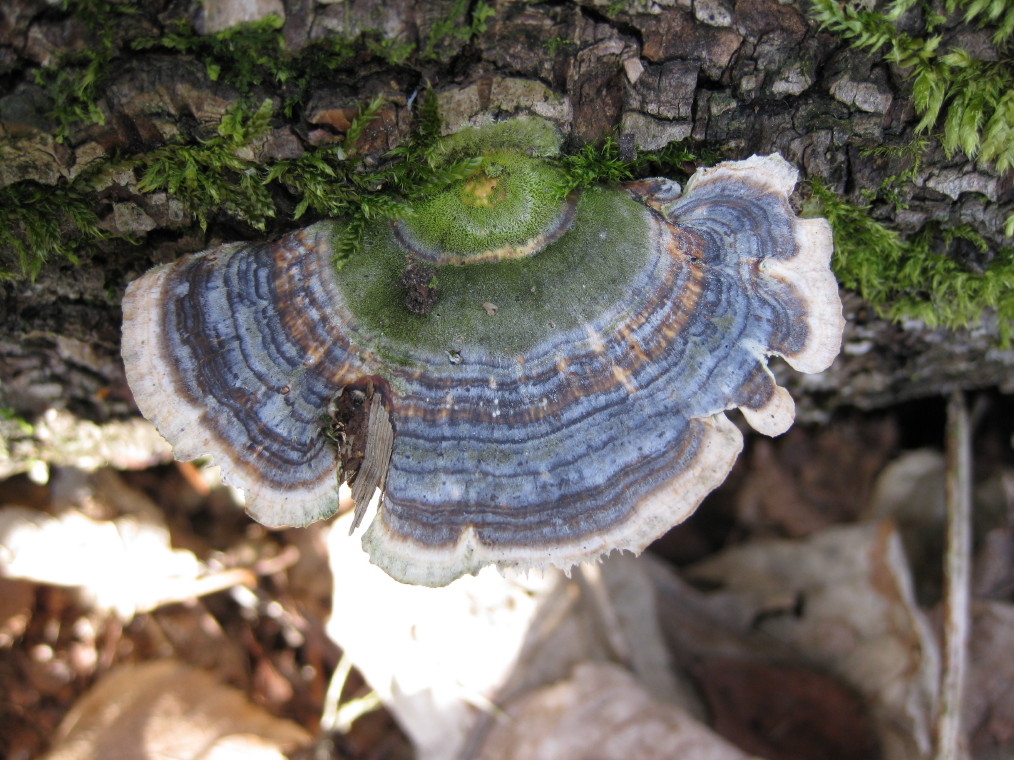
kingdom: Fungi
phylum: Basidiomycota
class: Agaricomycetes
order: Polyporales
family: Polyporaceae
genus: Trametes
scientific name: Trametes versicolor
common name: broget læderporesvamp
